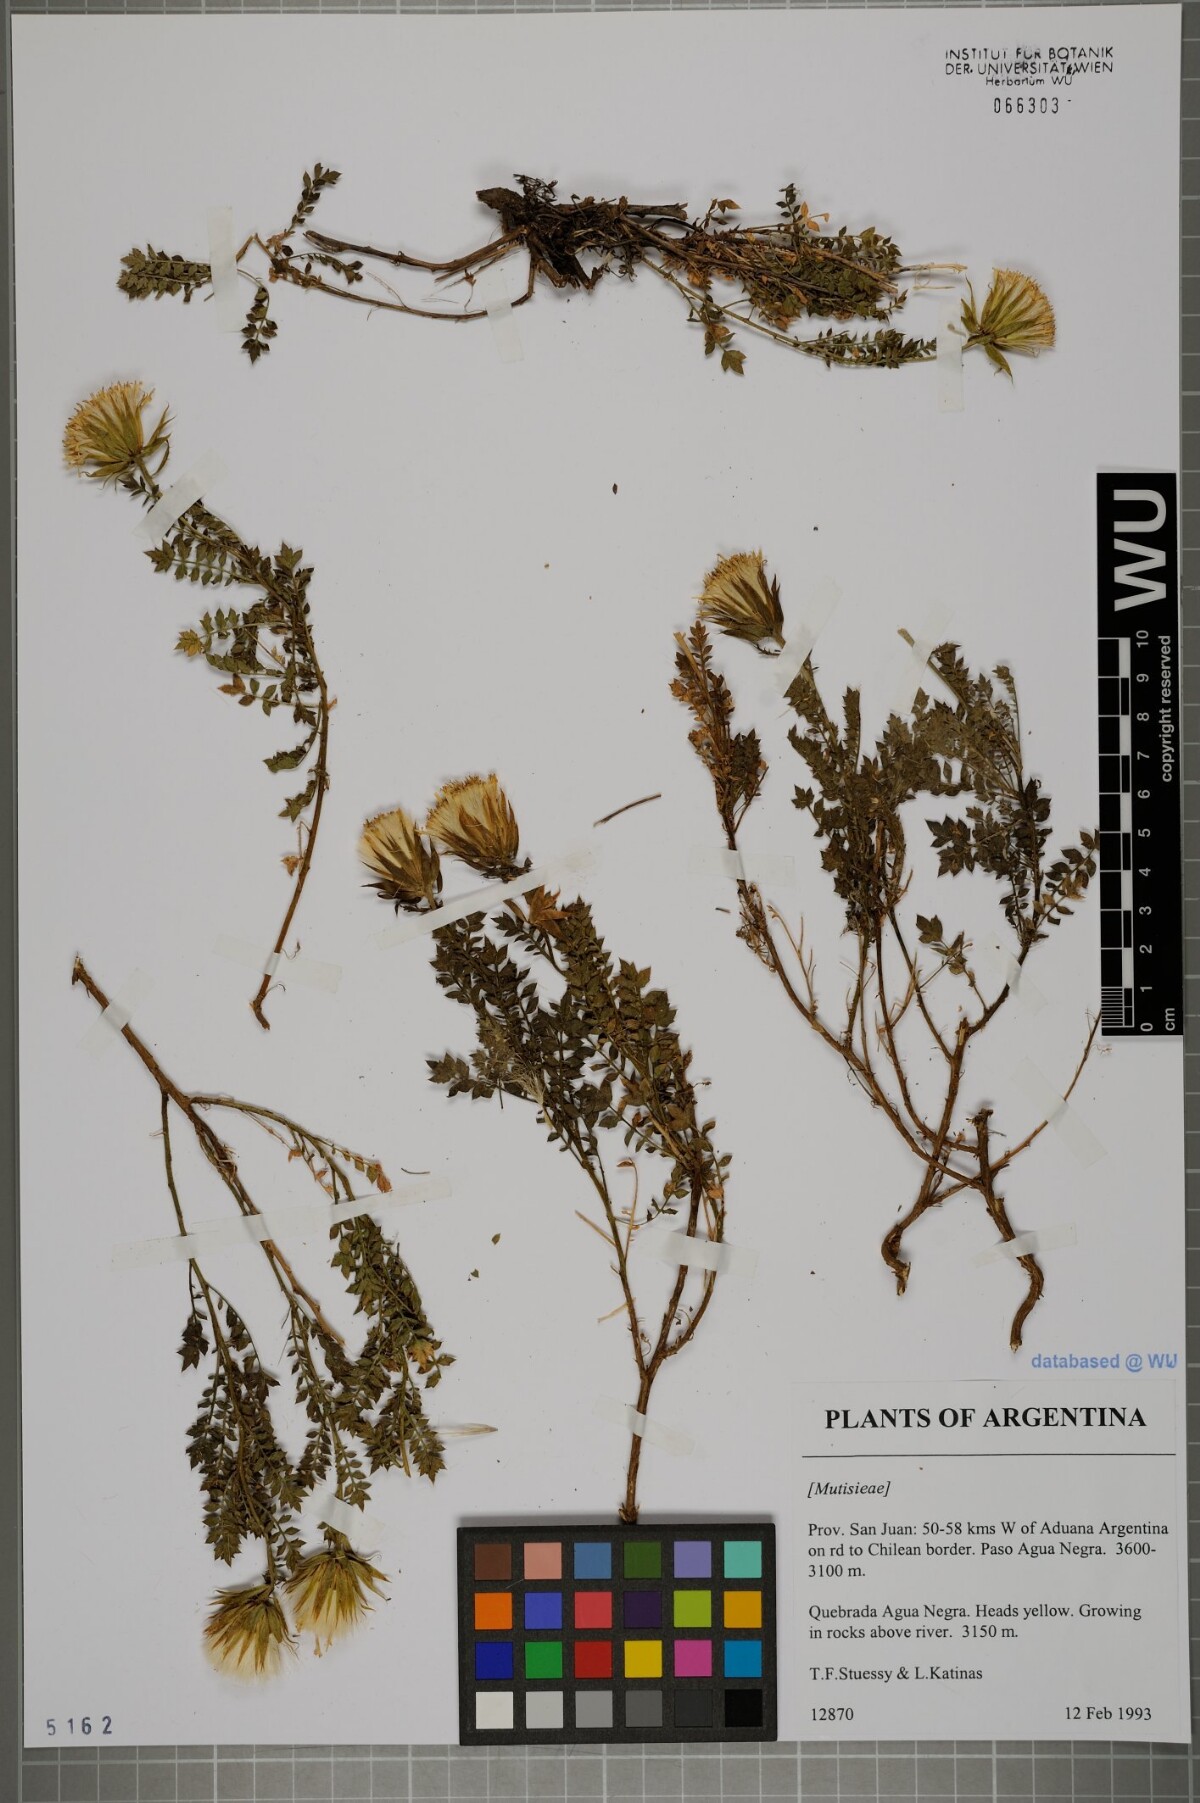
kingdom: Plantae
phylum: Tracheophyta
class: Magnoliopsida
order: Asterales
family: Asteraceae
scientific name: Asteraceae
